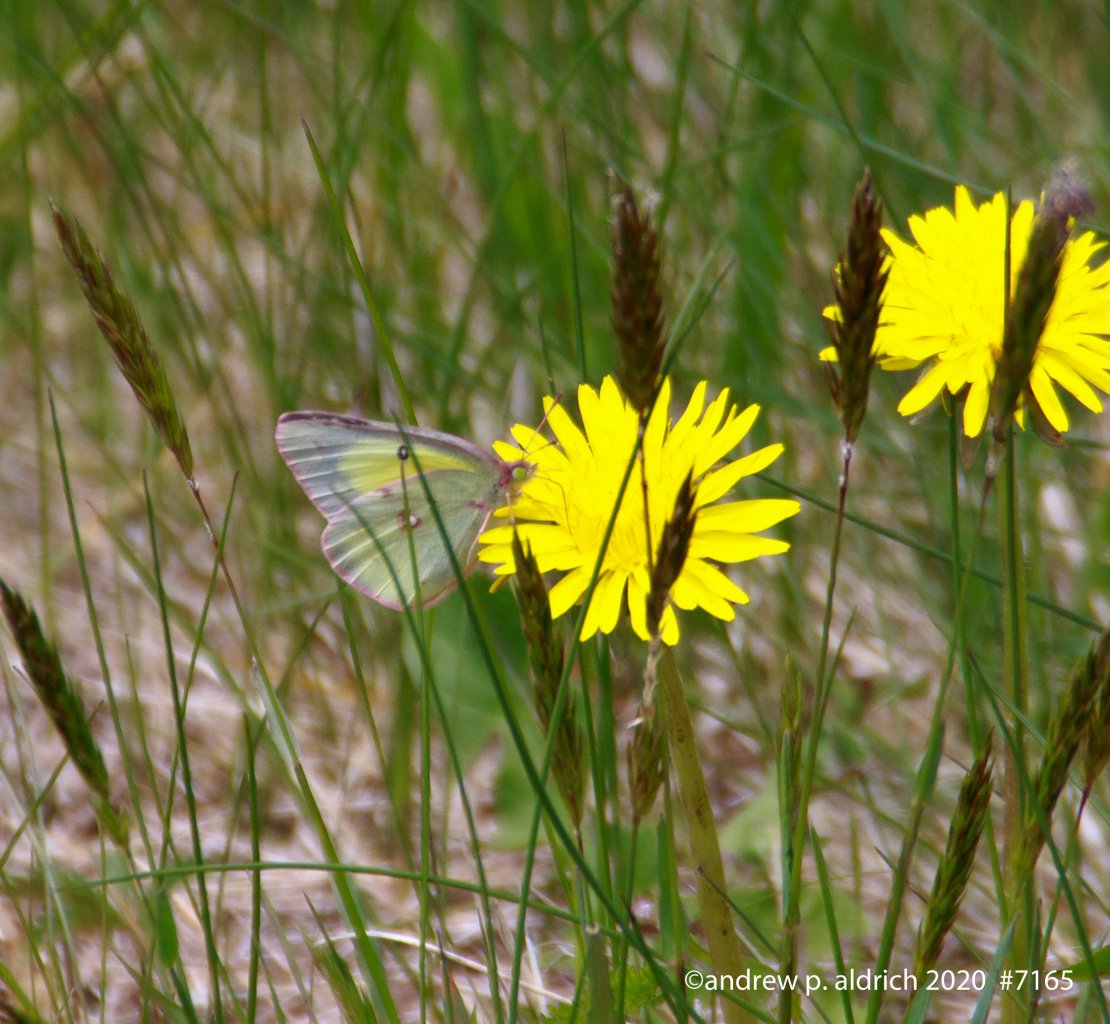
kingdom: Animalia
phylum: Arthropoda
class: Insecta
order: Lepidoptera
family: Pieridae
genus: Colias
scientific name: Colias
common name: Clouded Yellows
